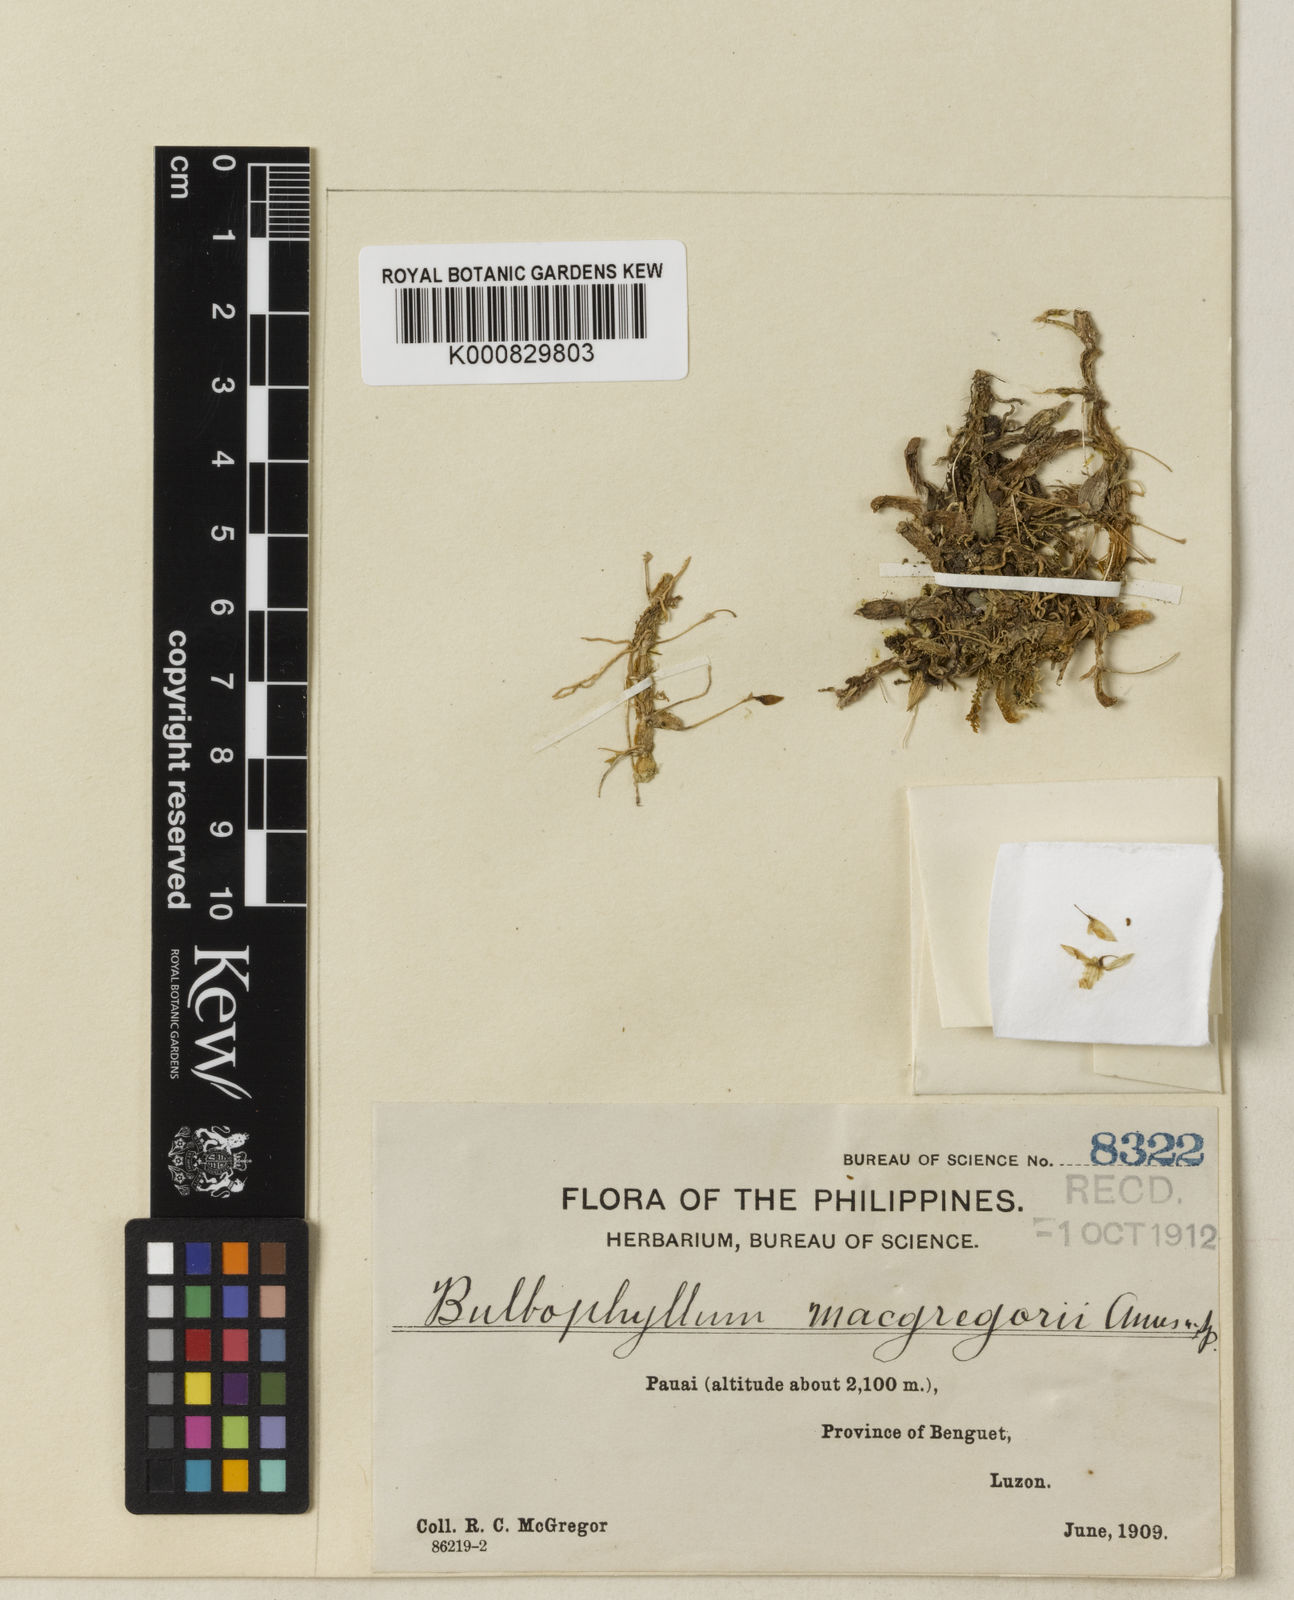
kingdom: Plantae
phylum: Tracheophyta
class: Liliopsida
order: Asparagales
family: Orchidaceae
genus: Bulbophyllum
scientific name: Bulbophyllum exquisitum
